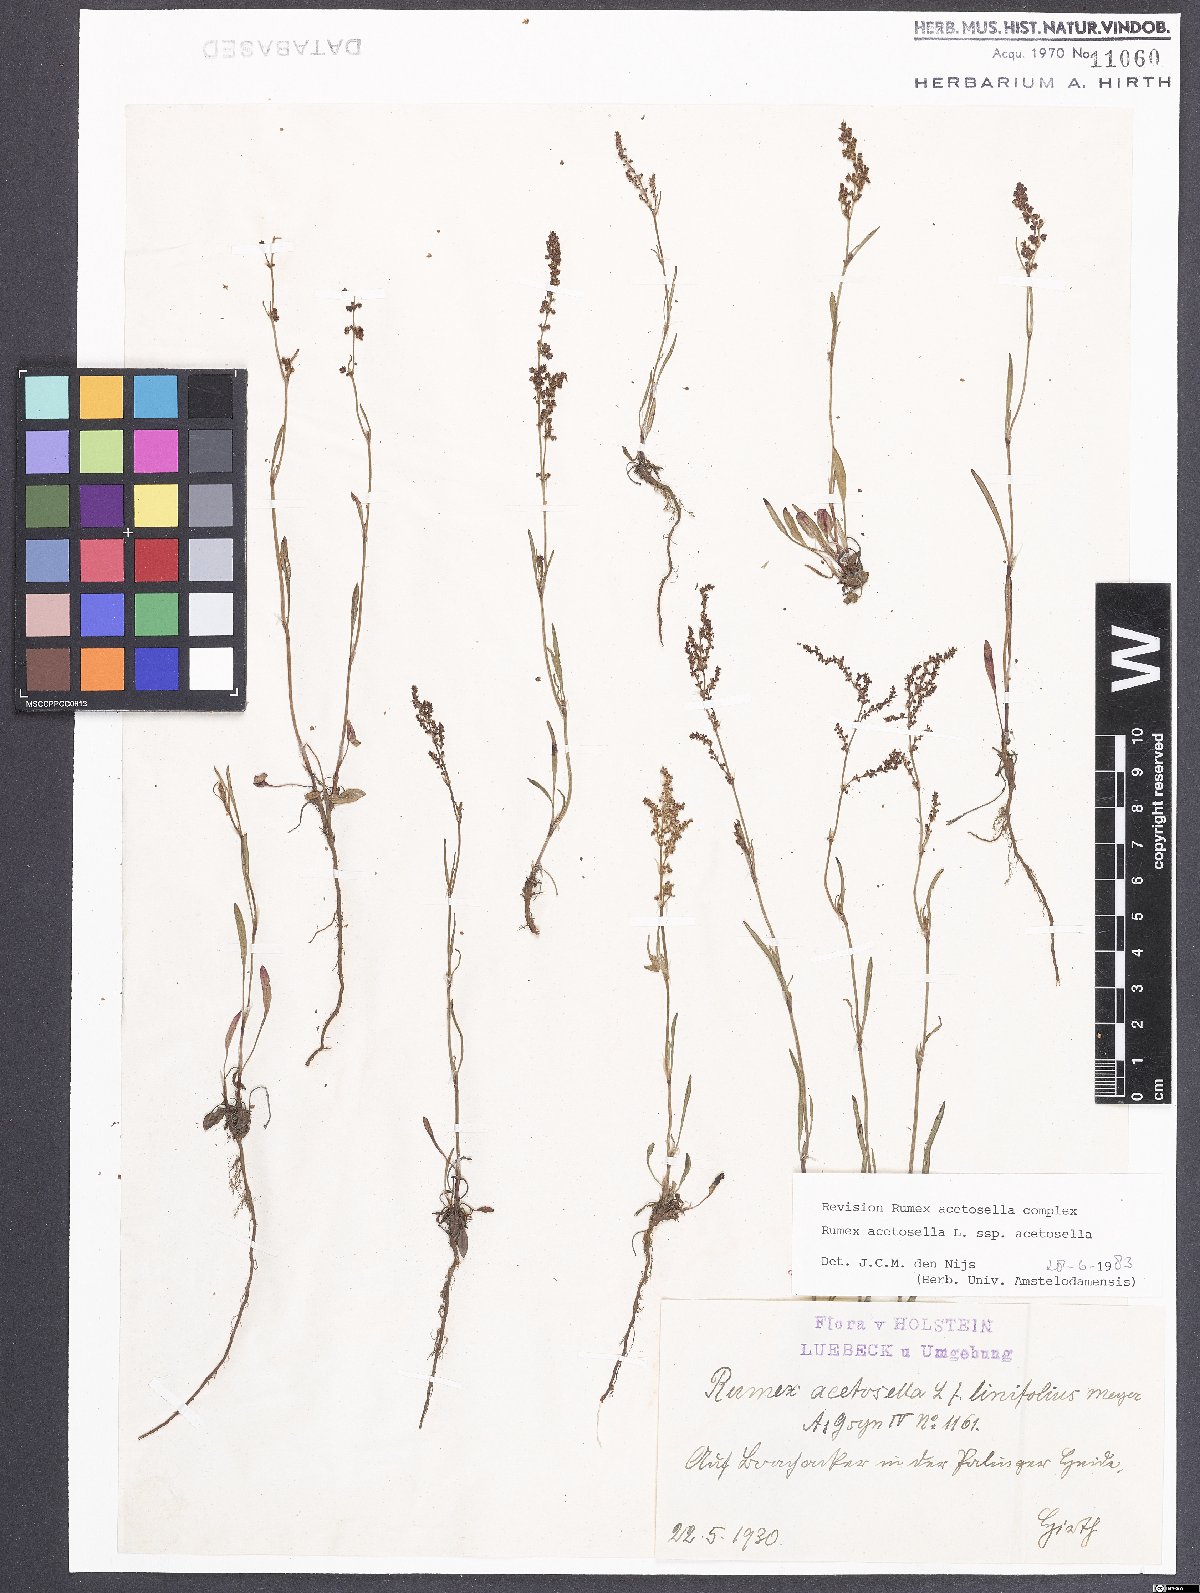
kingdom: Plantae
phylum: Tracheophyta
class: Magnoliopsida
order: Caryophyllales
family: Polygonaceae
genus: Rumex
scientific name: Rumex acetosella
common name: Common sheep sorrel
